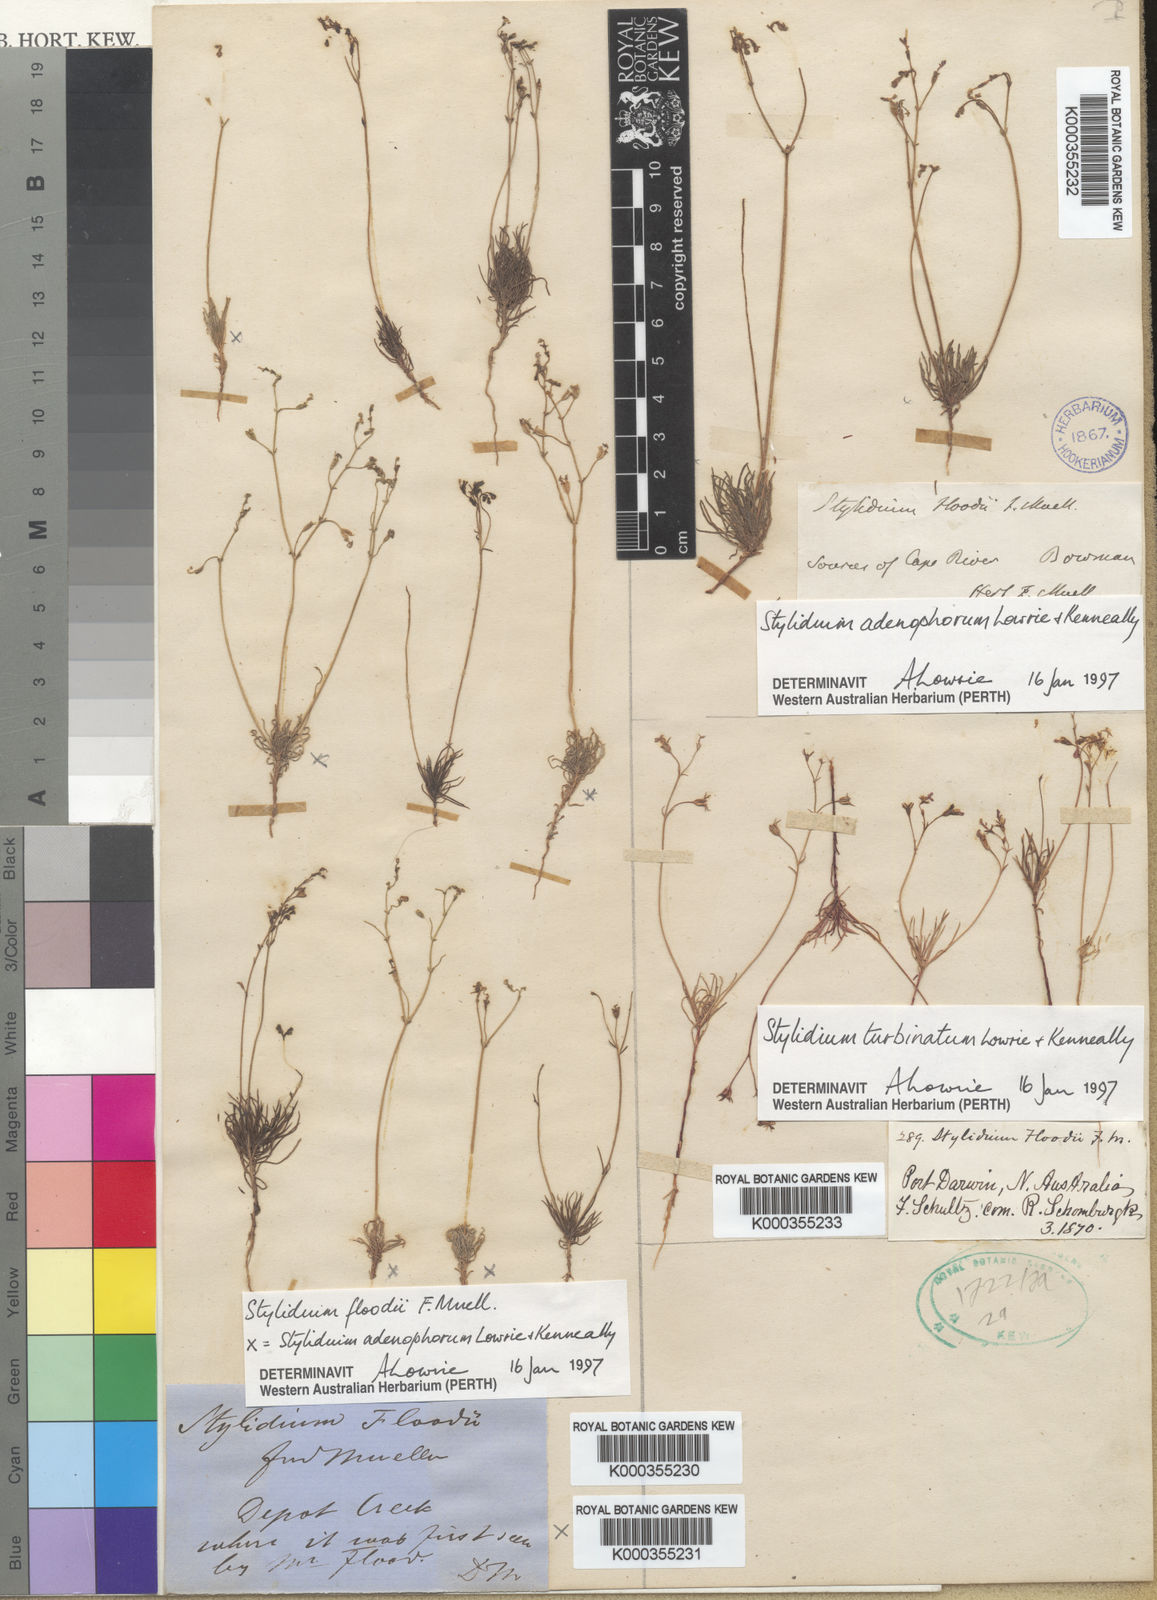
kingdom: Plantae
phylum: Tracheophyta
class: Magnoliopsida
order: Asterales
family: Stylidiaceae
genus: Stylidium
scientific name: Stylidium
